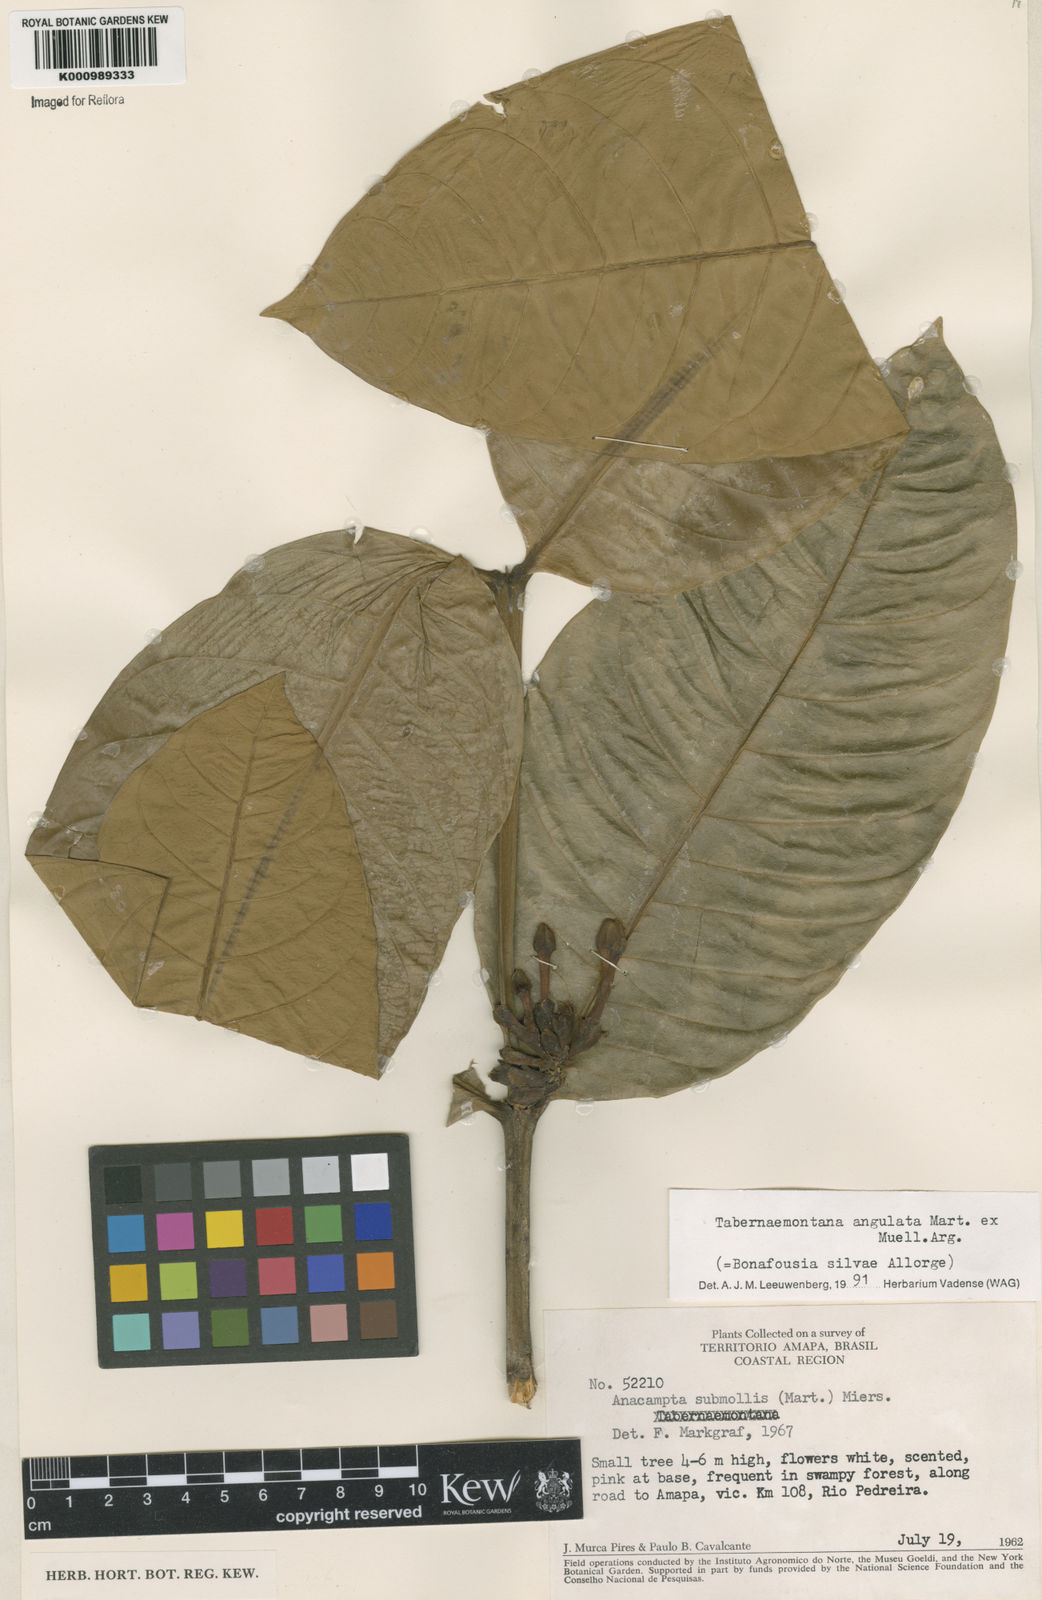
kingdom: Plantae
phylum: Tracheophyta
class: Magnoliopsida
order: Gentianales
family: Apocynaceae
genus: Tabernaemontana
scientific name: Tabernaemontana
